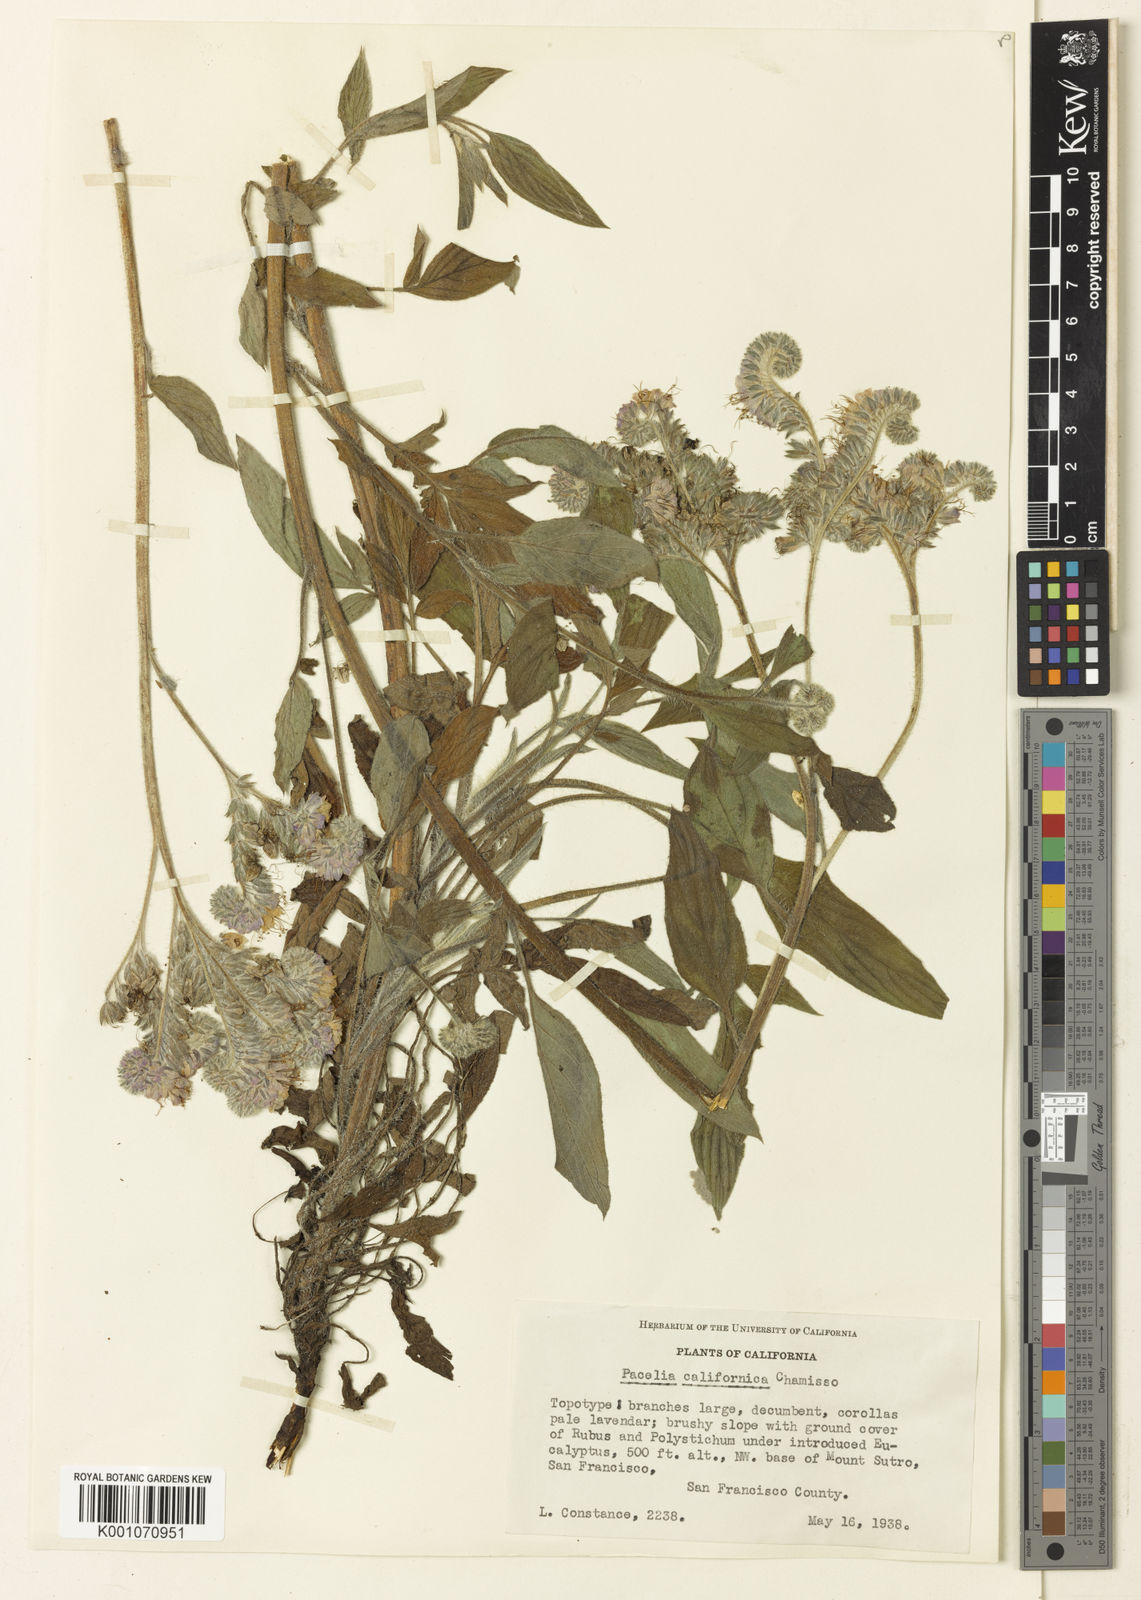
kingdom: Plantae
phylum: Tracheophyta
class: Magnoliopsida
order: Boraginales
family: Hydrophyllaceae
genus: Phacelia
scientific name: Phacelia californica
